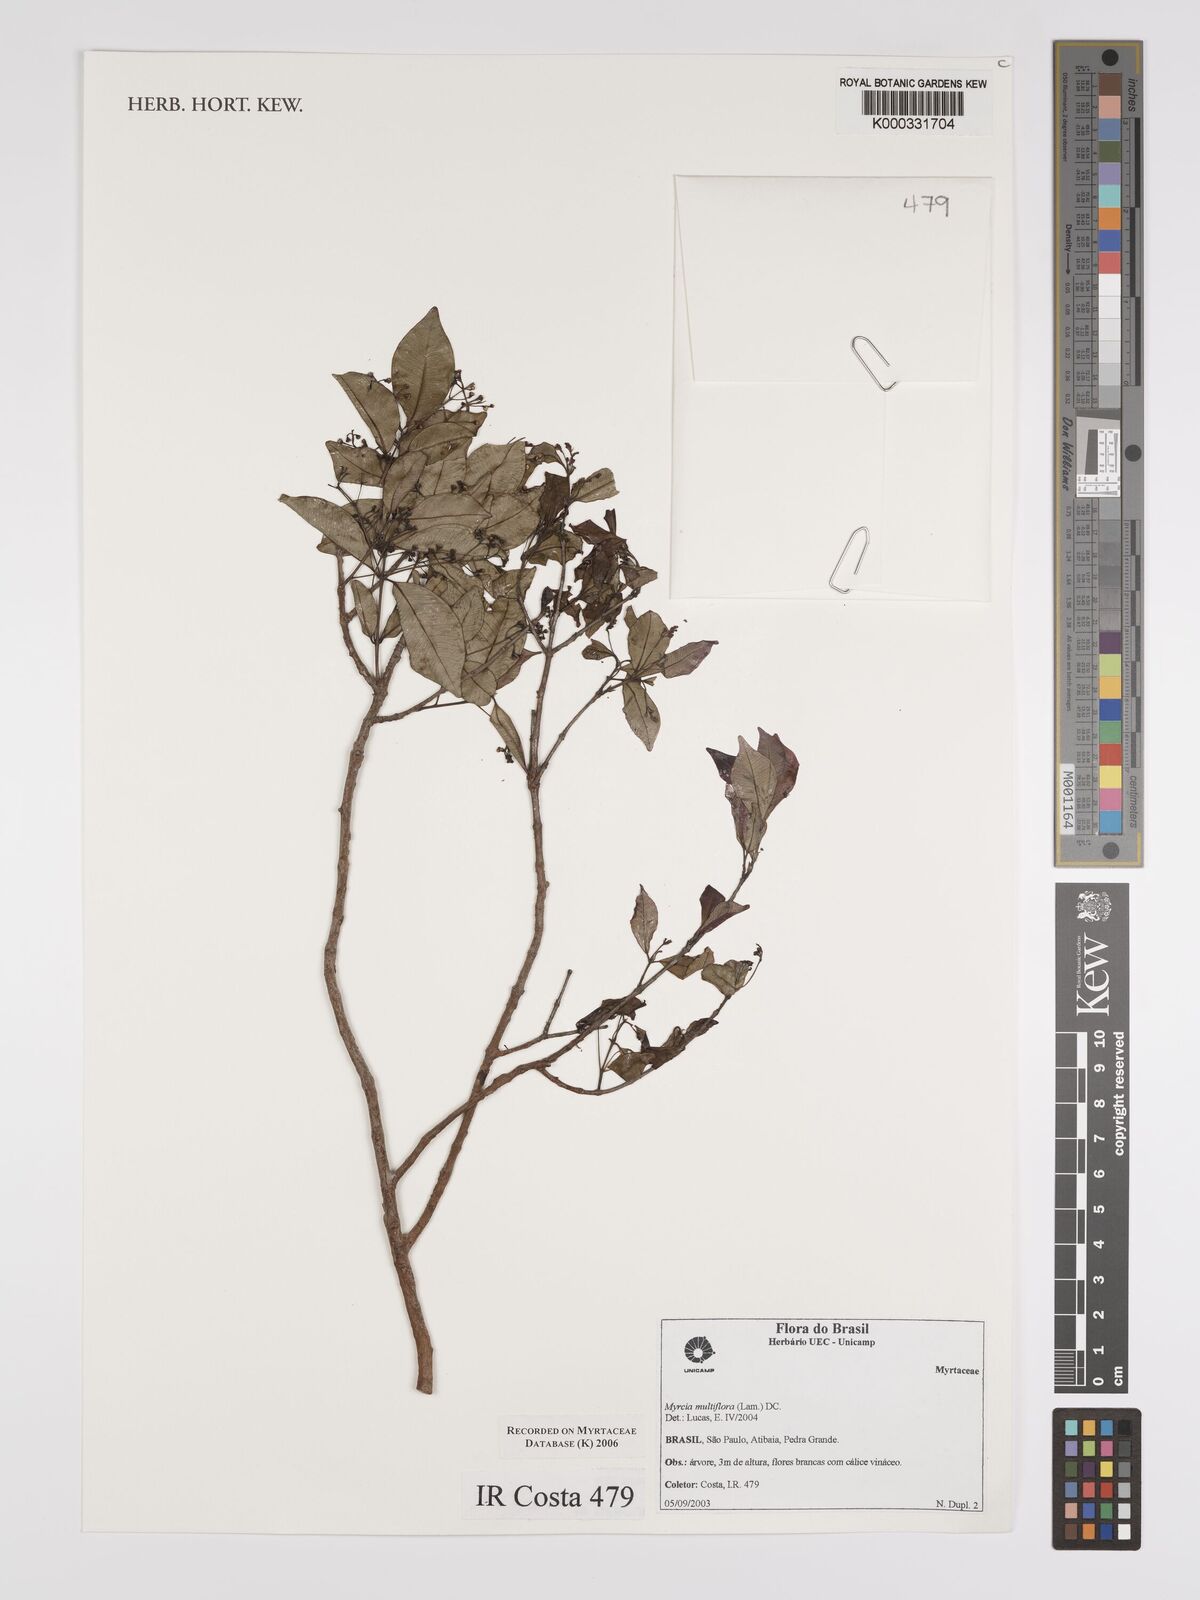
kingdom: Plantae
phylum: Tracheophyta
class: Magnoliopsida
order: Myrtales
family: Myrtaceae
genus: Myrcia
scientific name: Myrcia multiflora
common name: Pedra hume
